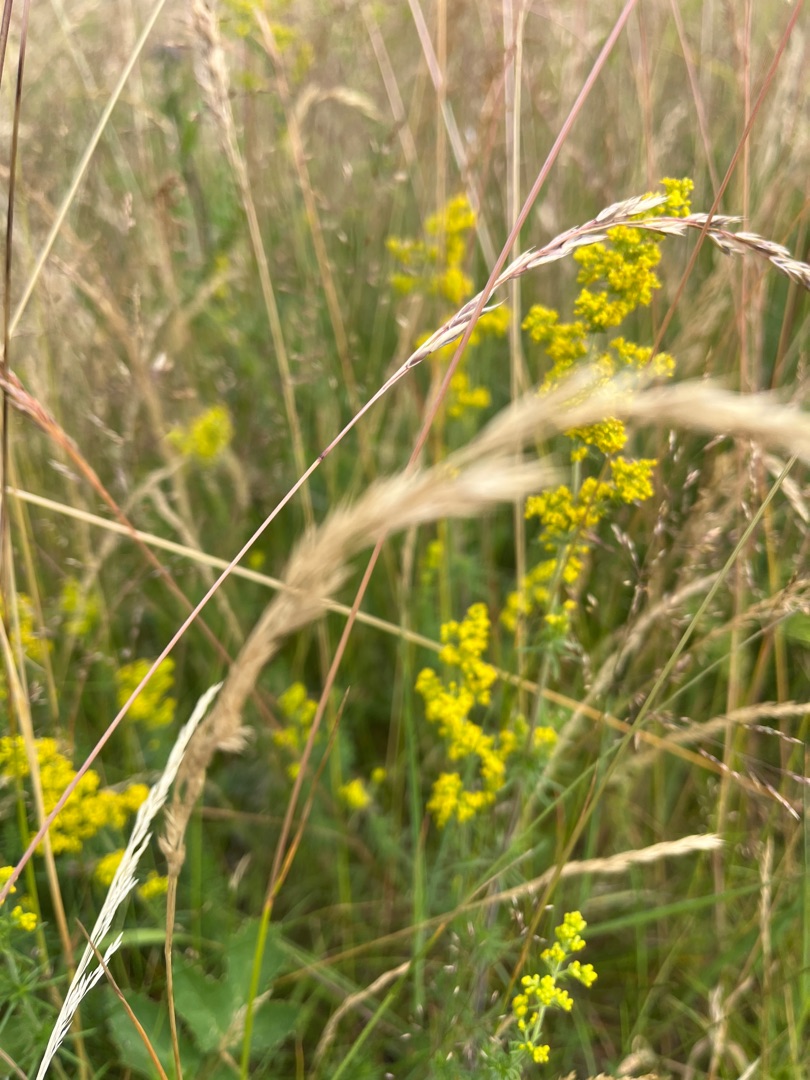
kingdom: Plantae
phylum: Tracheophyta
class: Magnoliopsida
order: Gentianales
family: Rubiaceae
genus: Galium
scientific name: Galium verum
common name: Gul snerre
